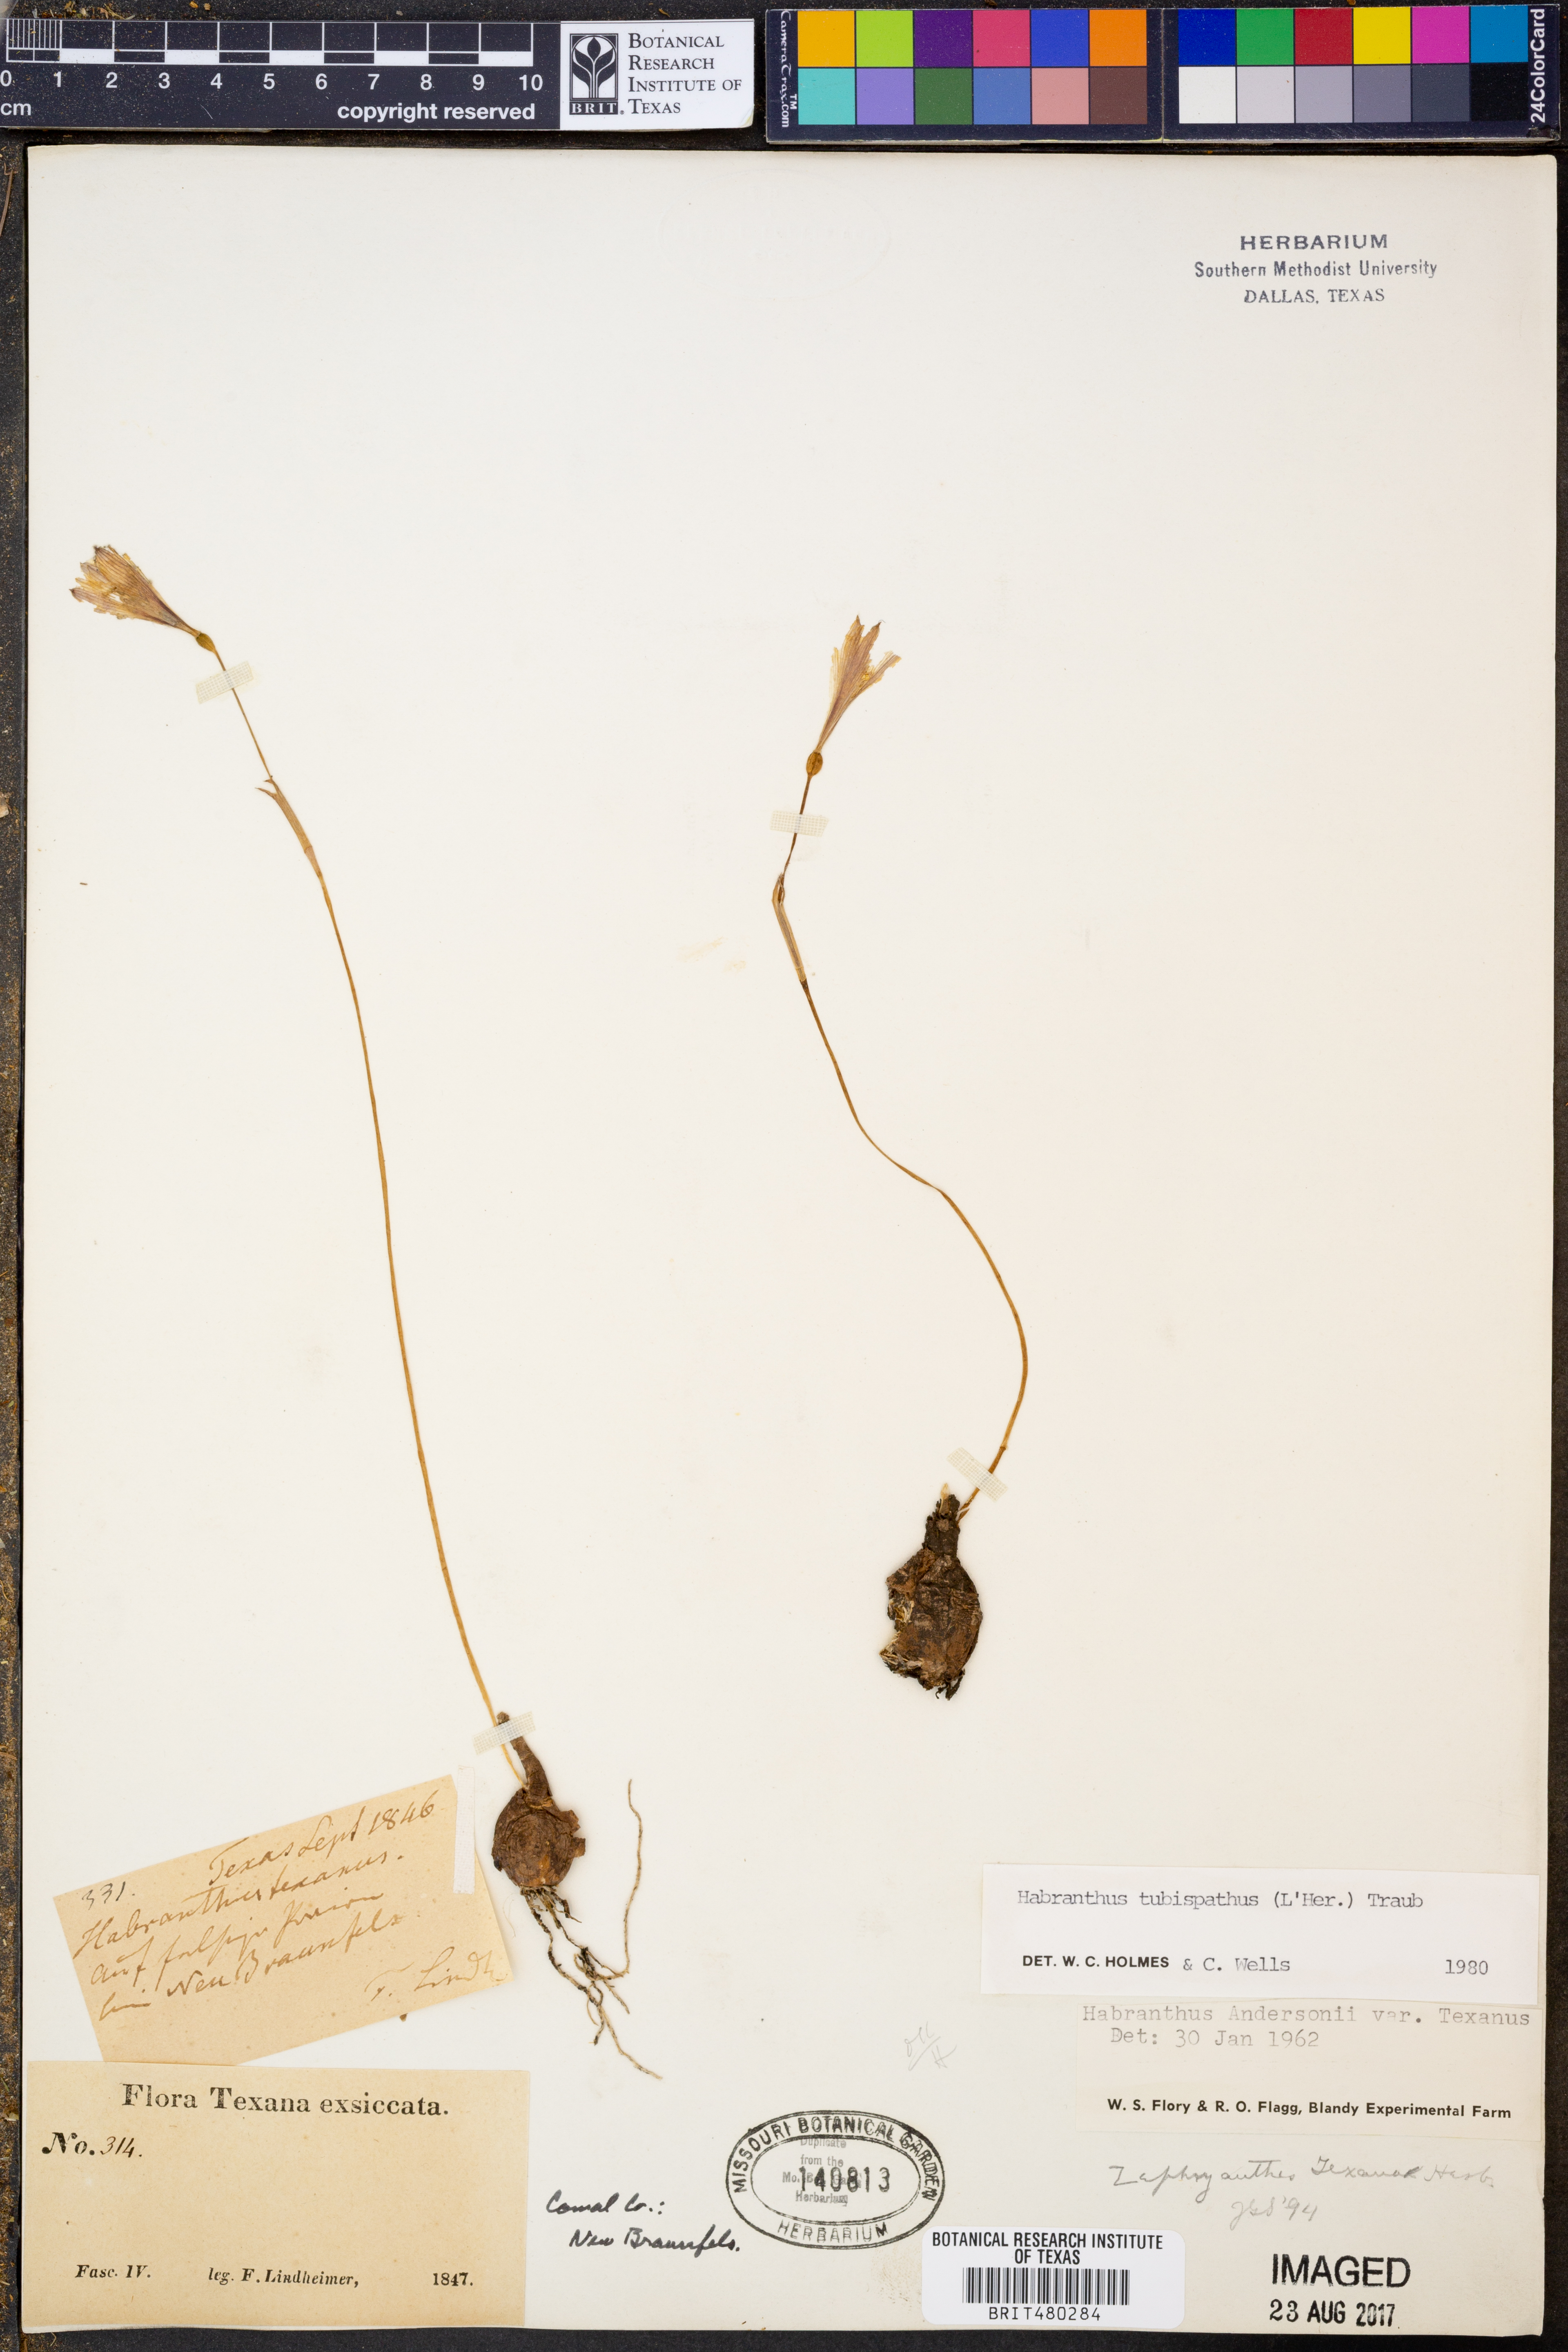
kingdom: Plantae
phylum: Tracheophyta
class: Liliopsida
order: Asparagales
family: Amaryllidaceae
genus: Zephyranthes
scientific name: Zephyranthes tubispatha
